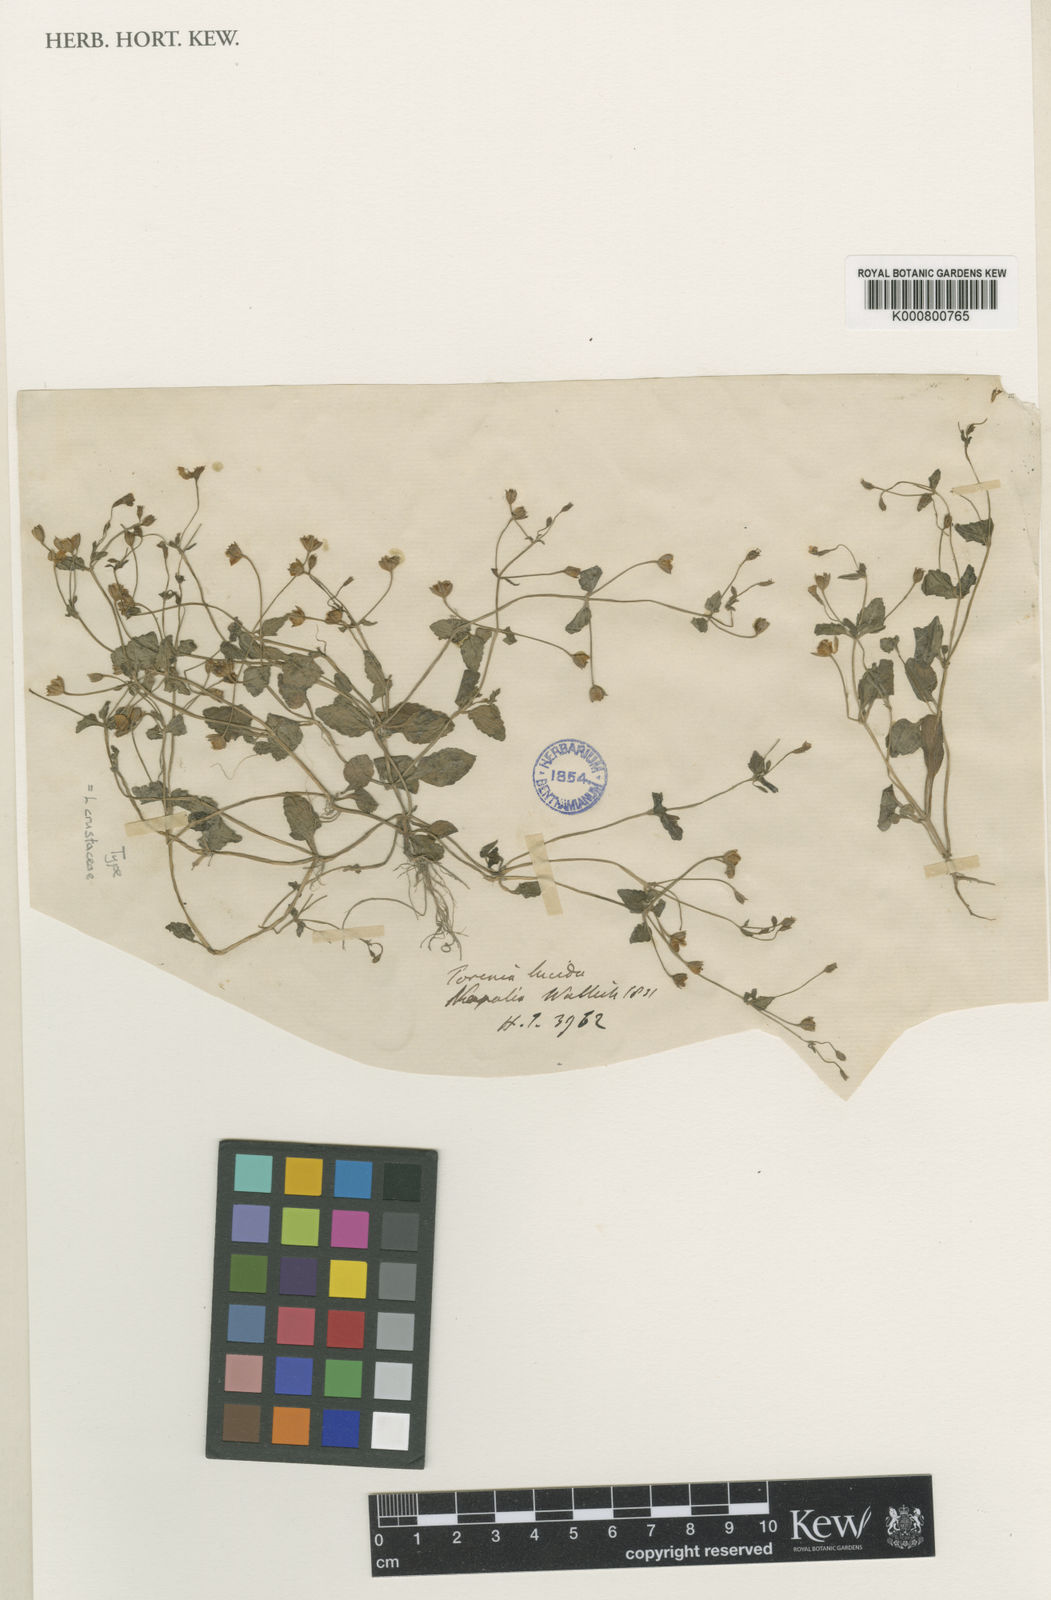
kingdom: Plantae
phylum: Tracheophyta
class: Magnoliopsida
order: Lamiales
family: Linderniaceae
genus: Lindernia
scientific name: Lindernia
